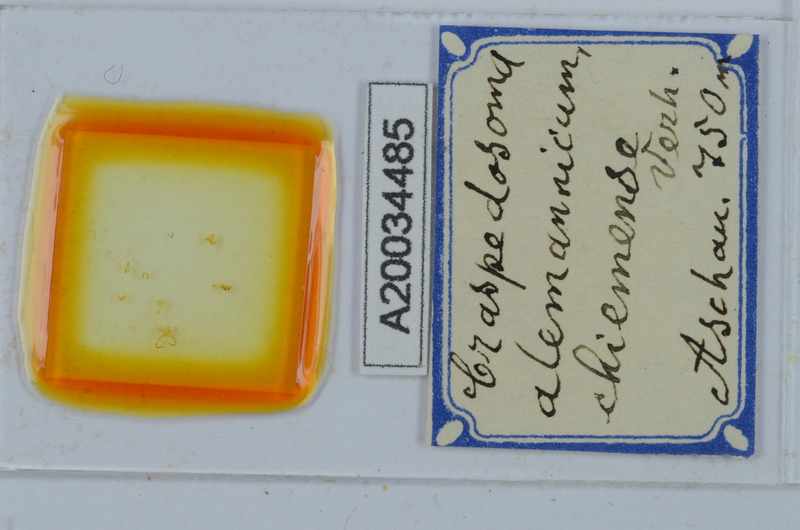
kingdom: Animalia
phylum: Arthropoda
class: Diplopoda
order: Chordeumatida
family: Craspedosomatidae
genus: Craspedosoma
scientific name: Craspedosoma alemannicum
